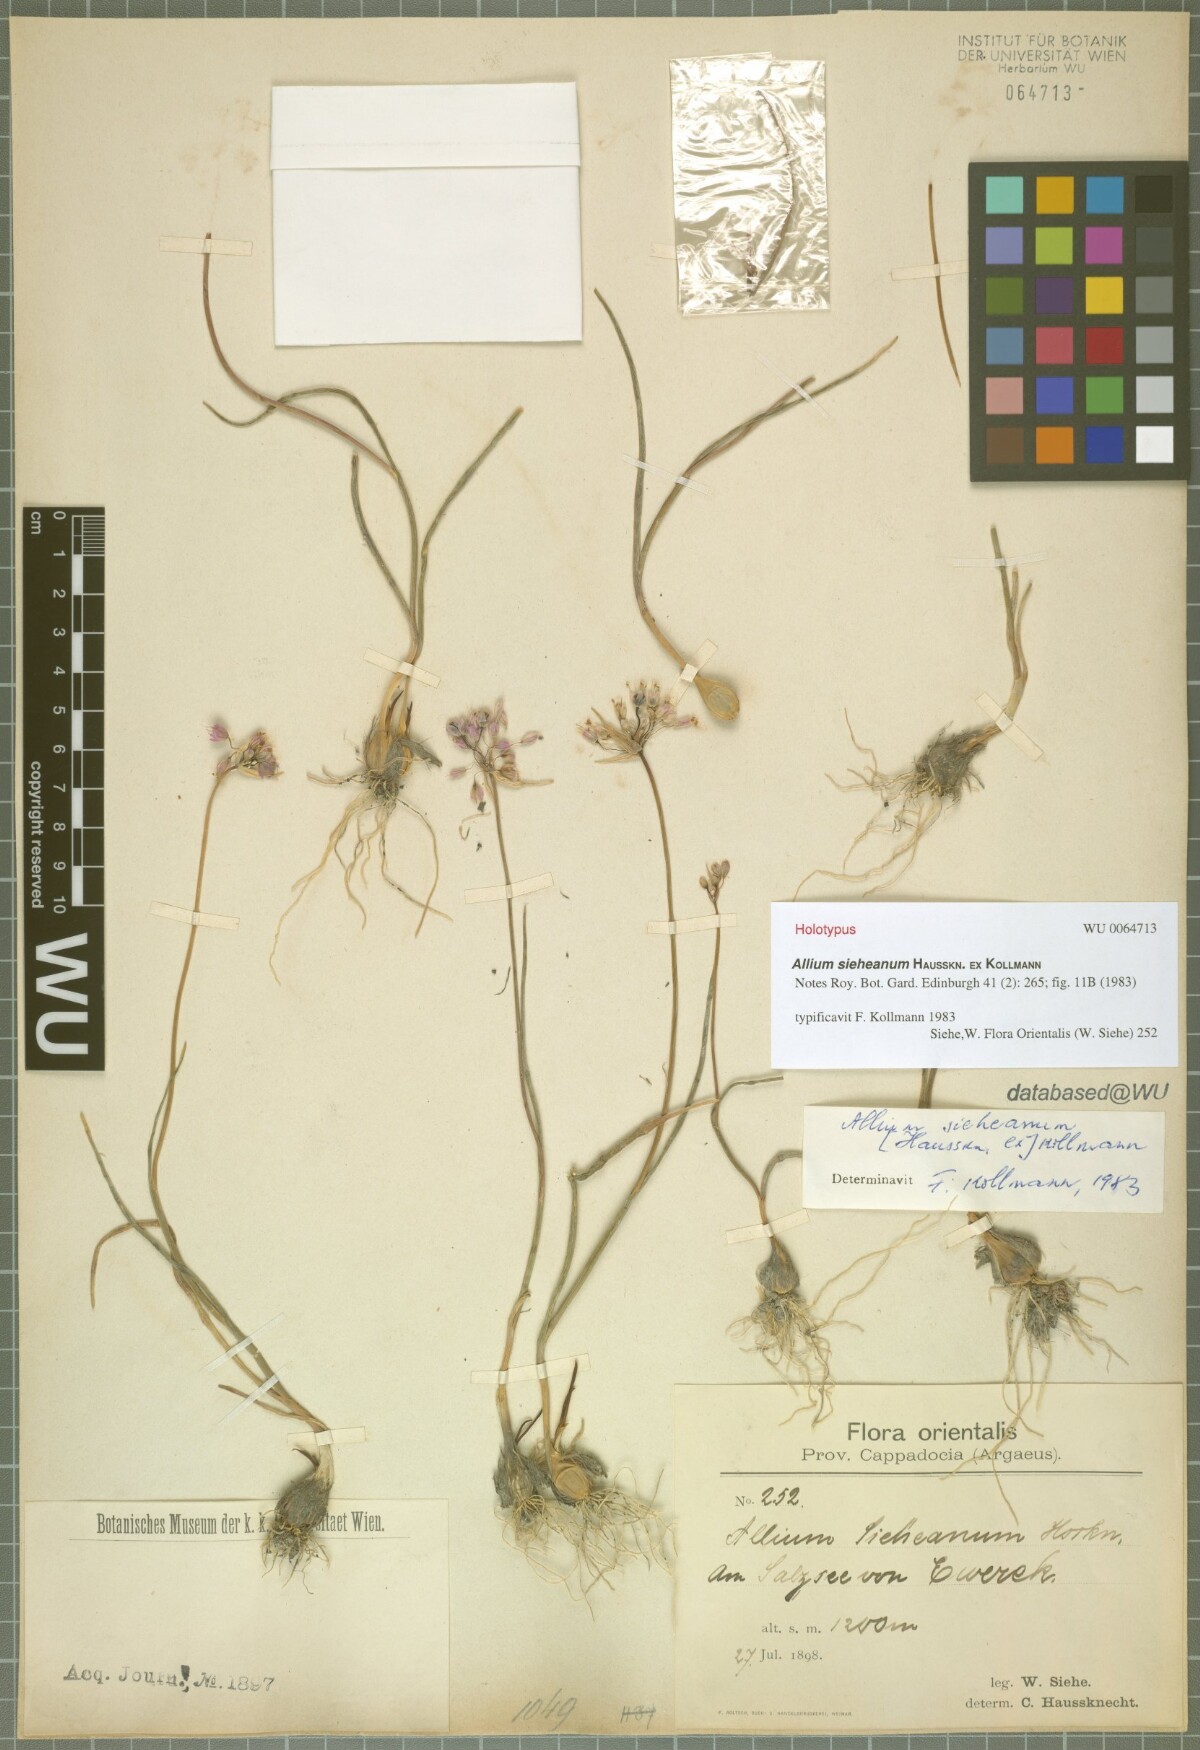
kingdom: Plantae
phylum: Tracheophyta
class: Liliopsida
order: Asparagales
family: Amaryllidaceae
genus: Allium
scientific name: Allium sieheanum
